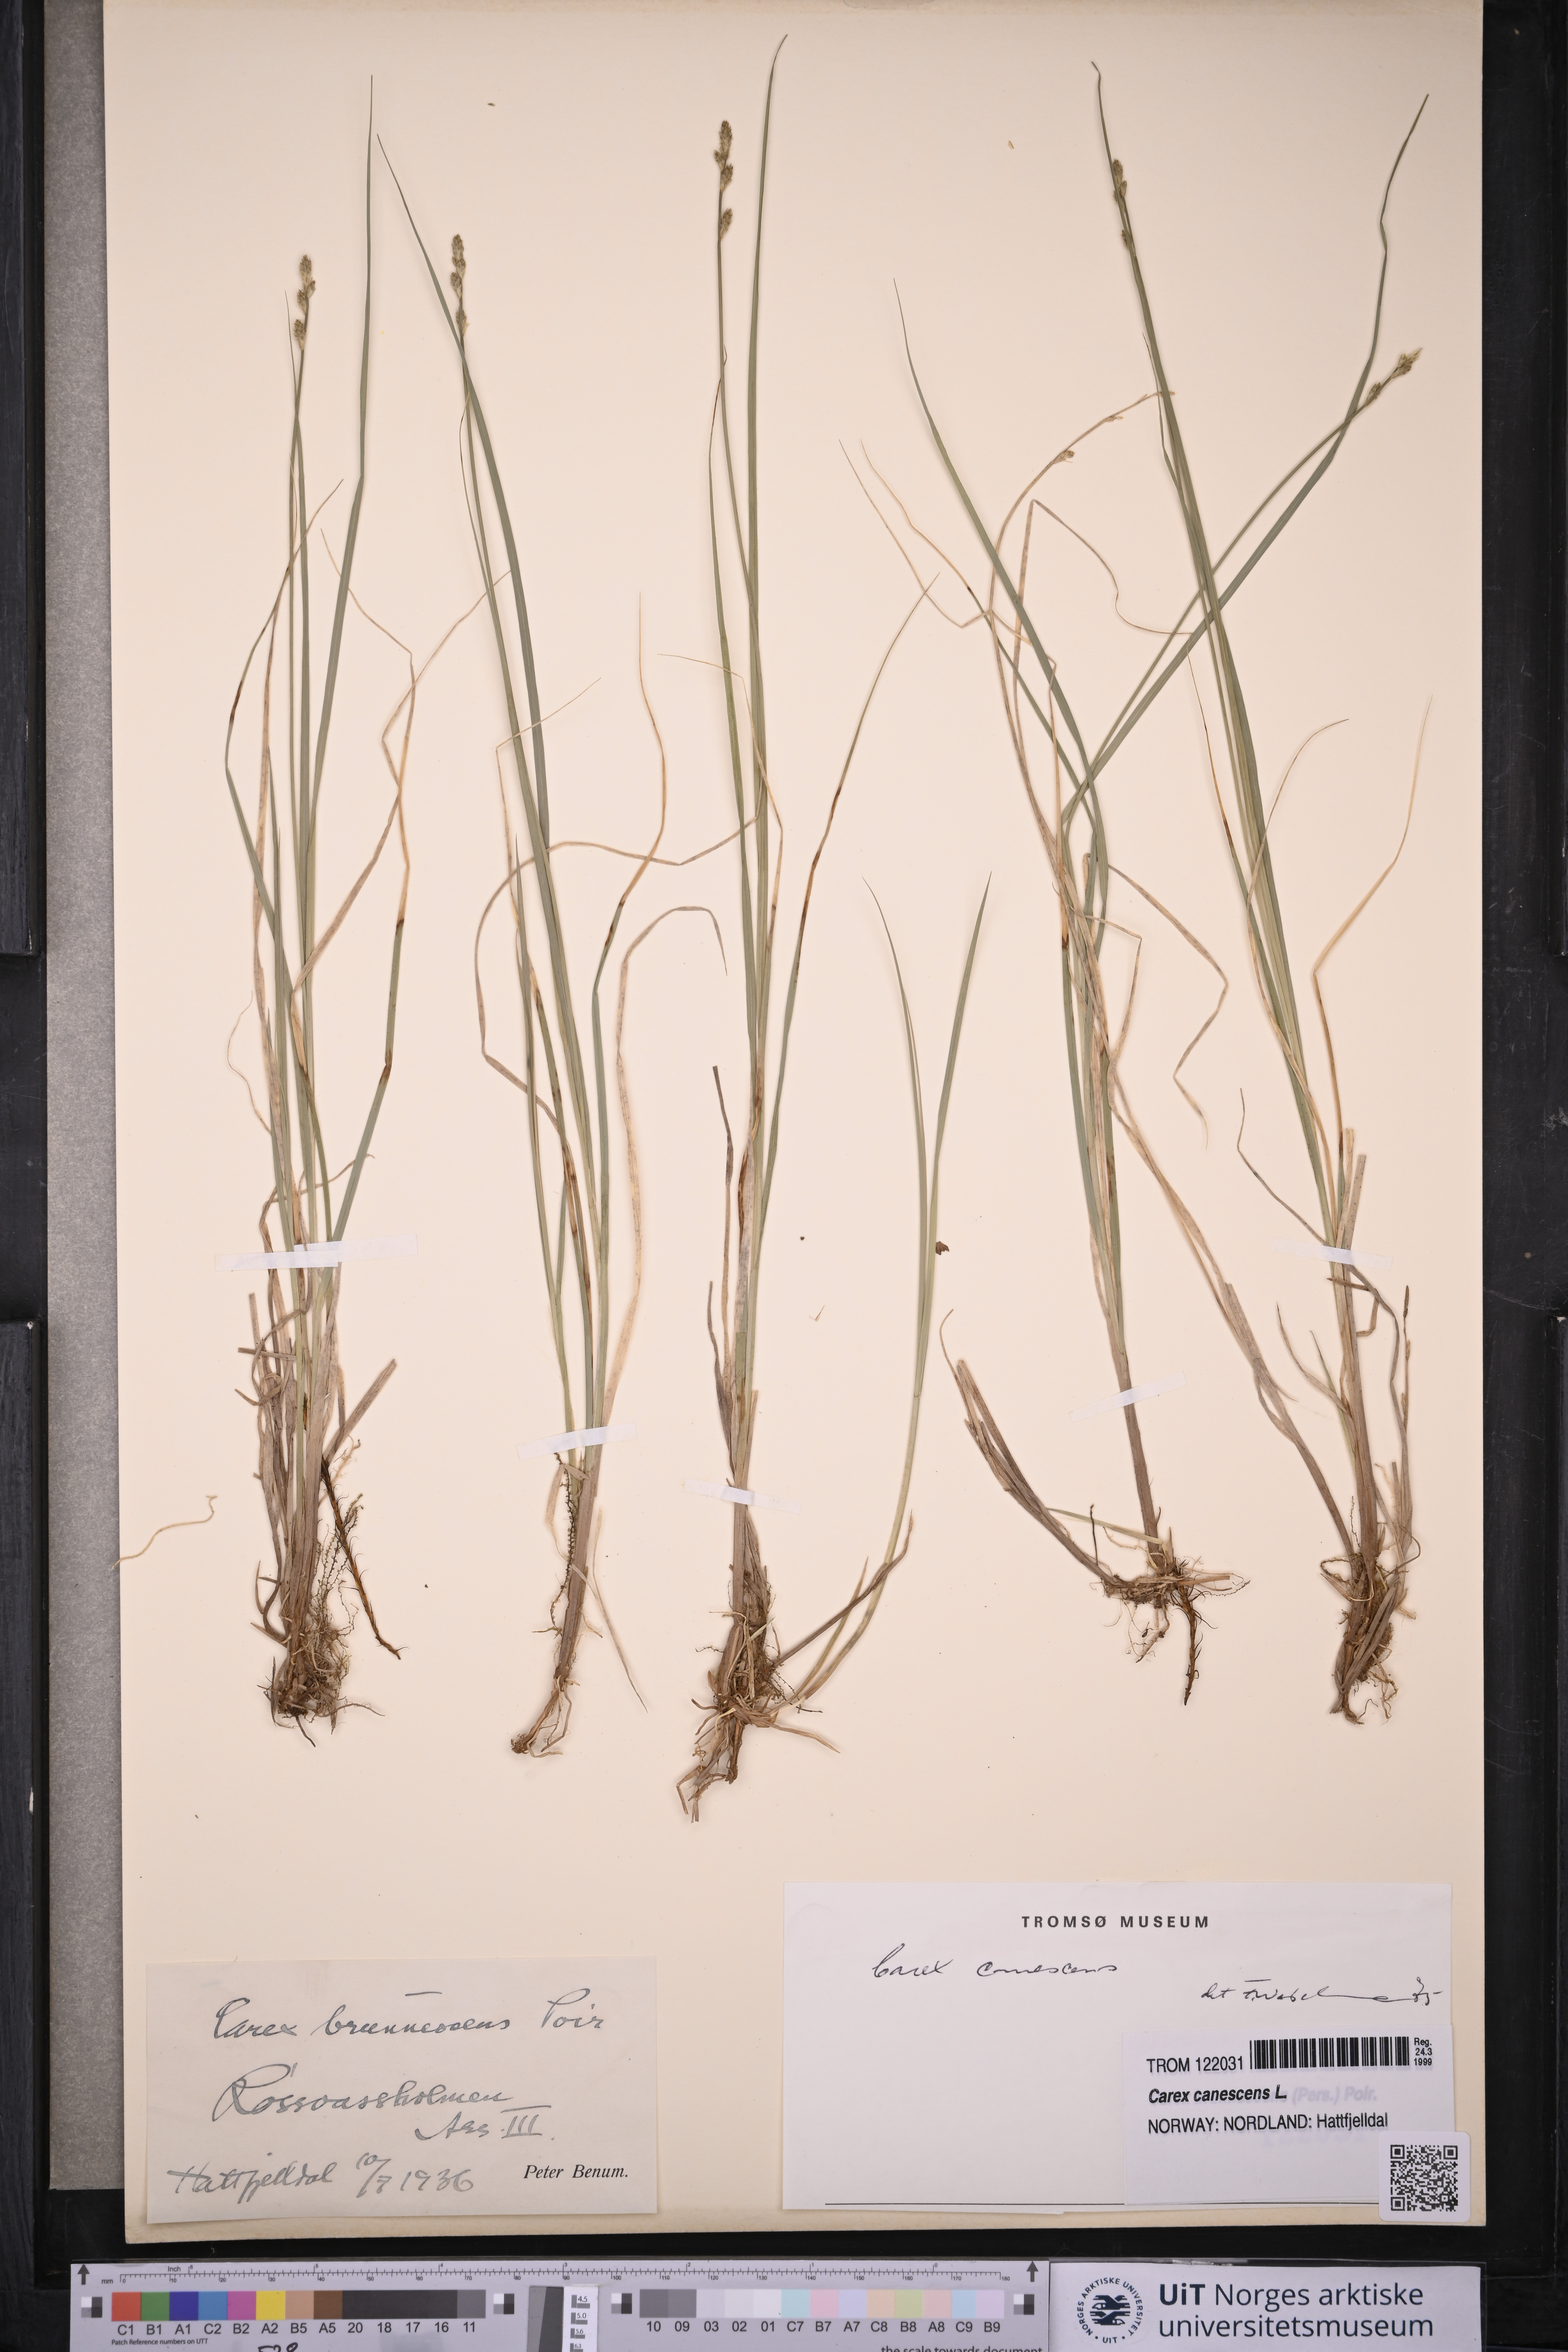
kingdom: Plantae
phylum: Tracheophyta
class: Liliopsida
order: Poales
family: Cyperaceae
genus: Carex
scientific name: Carex canescens
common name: White sedge
